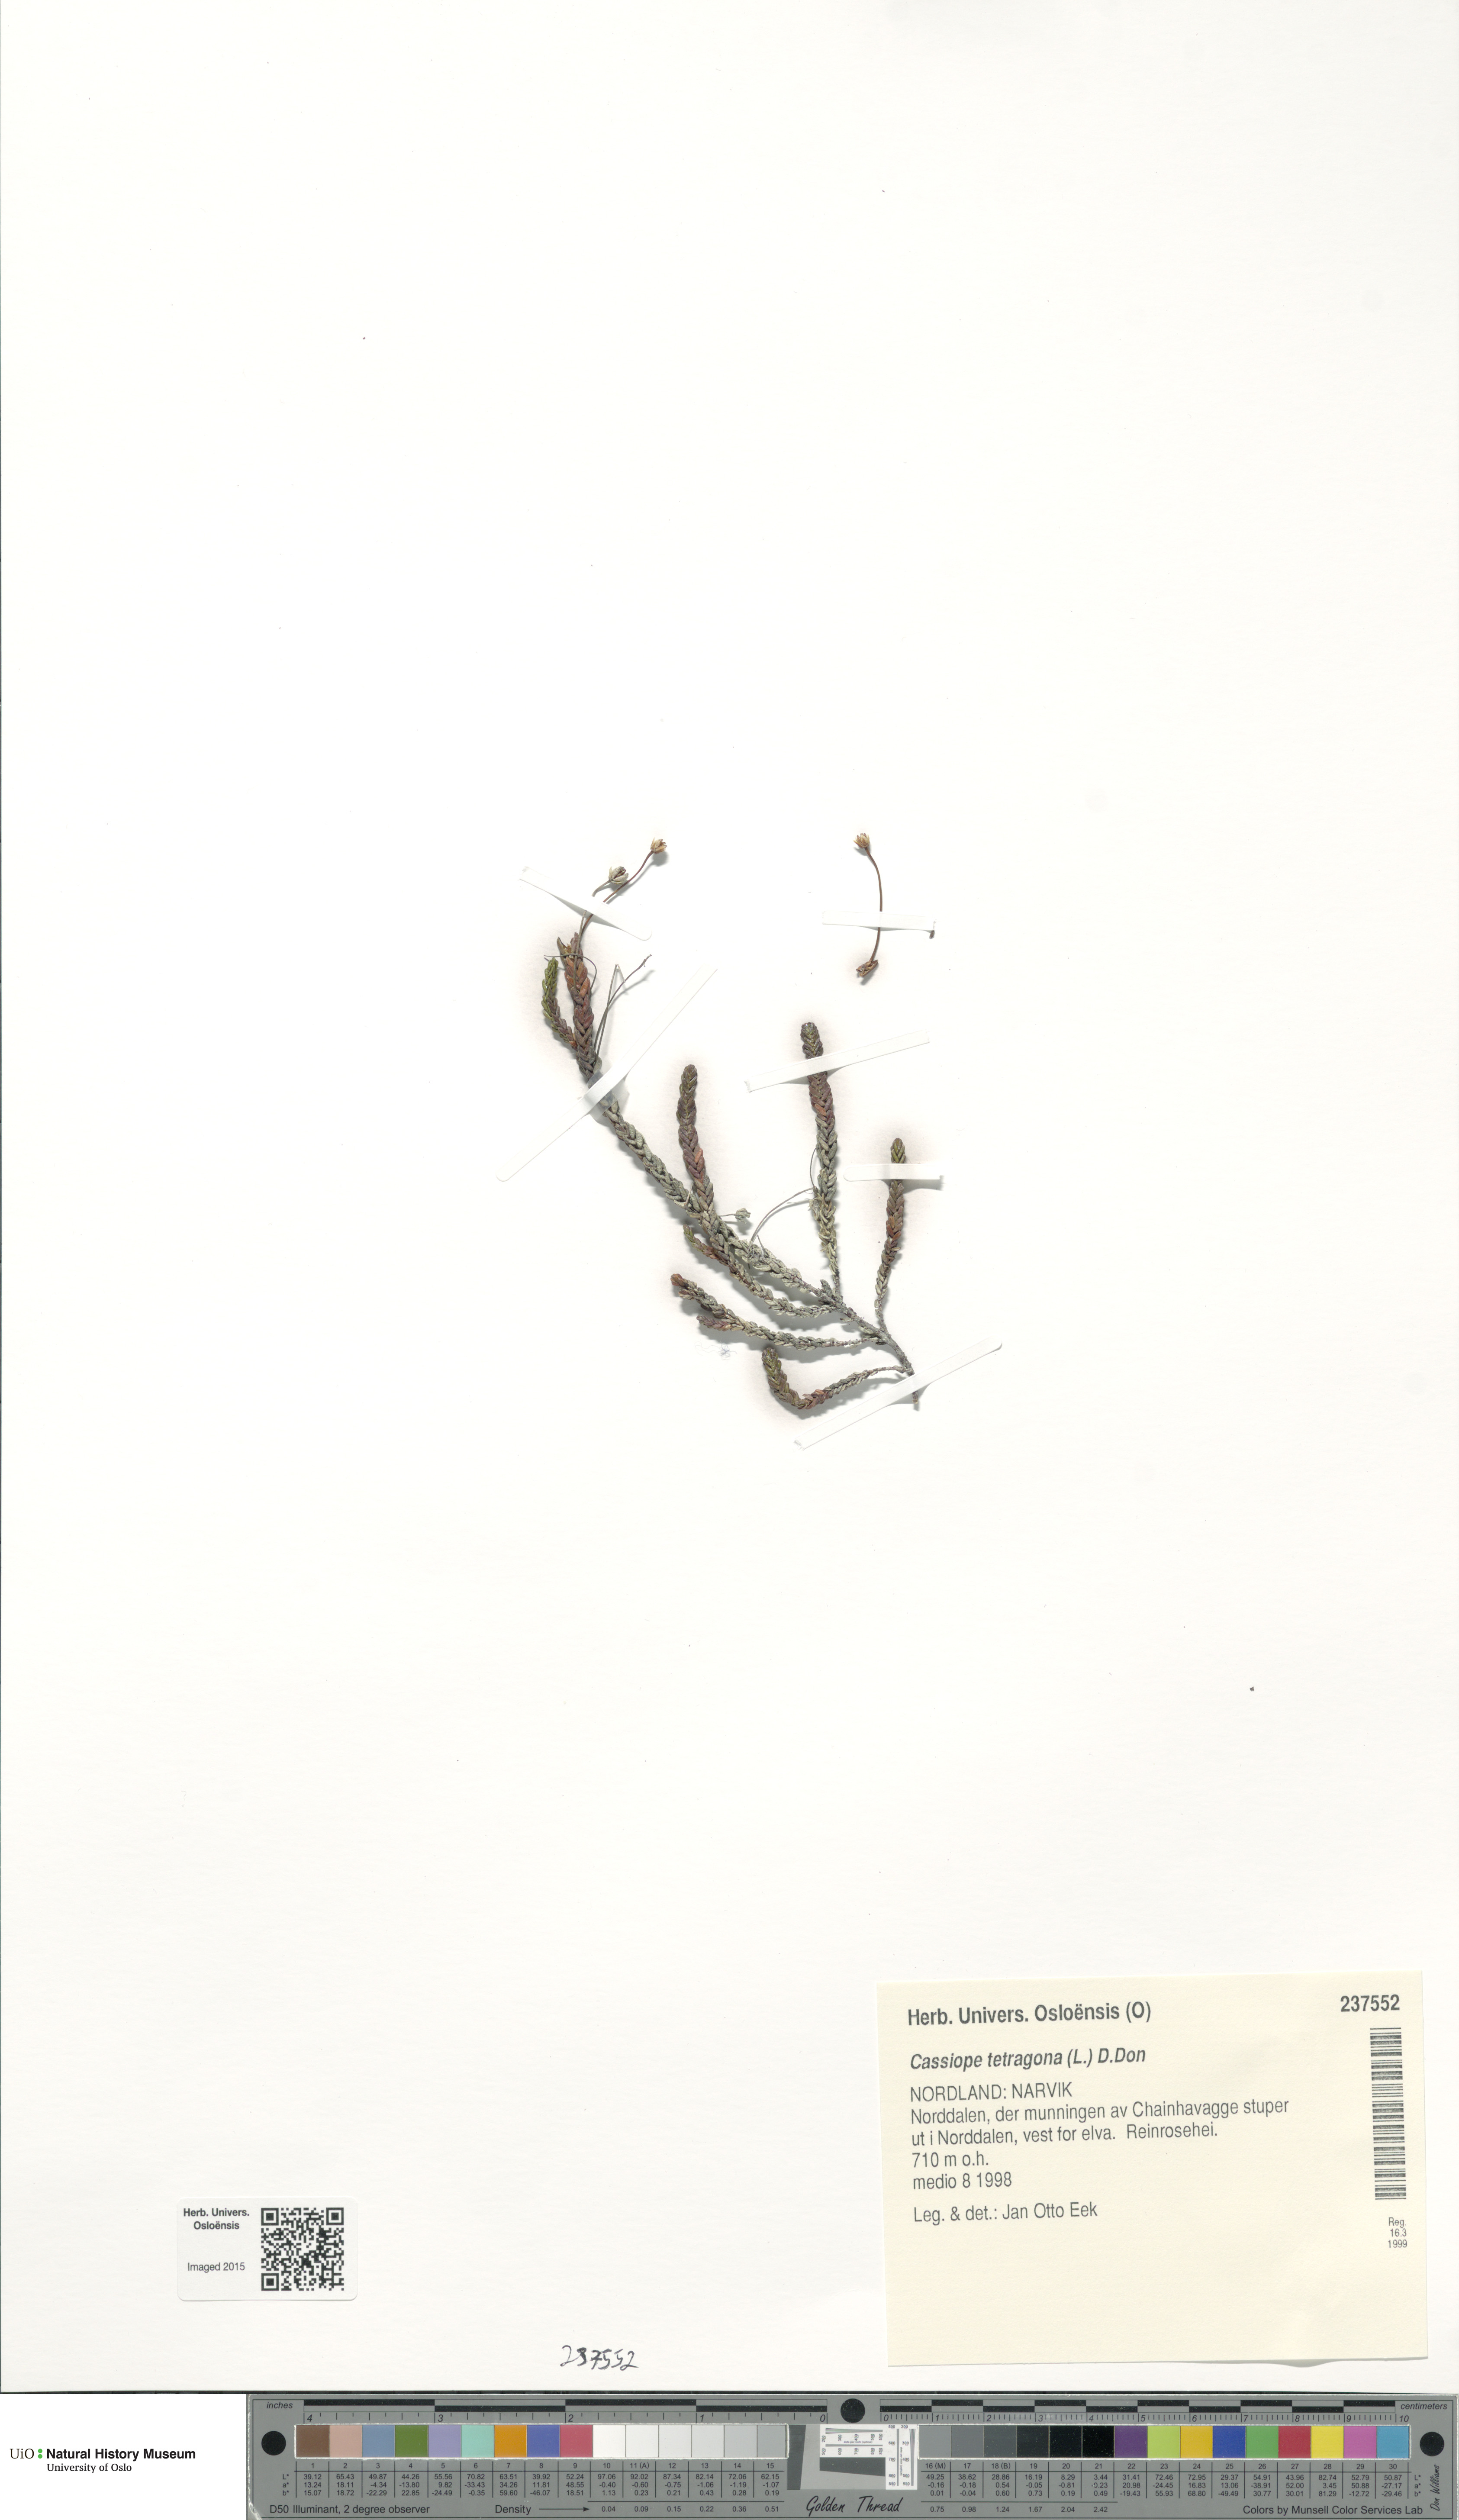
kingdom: Plantae
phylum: Tracheophyta
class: Magnoliopsida
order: Ericales
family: Ericaceae
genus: Cassiope
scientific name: Cassiope tetragona
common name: Arctic bell heather
